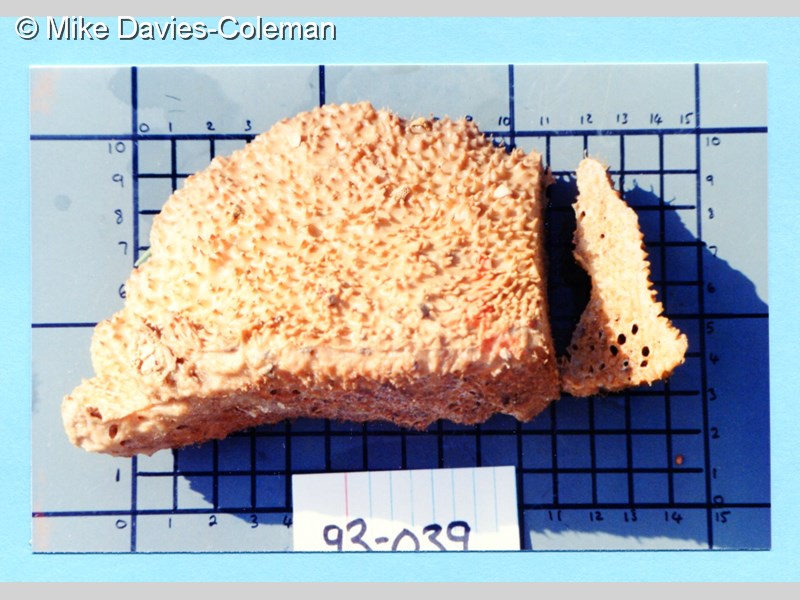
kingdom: Animalia
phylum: Porifera
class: Demospongiae
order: Axinellida
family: Axinellidae
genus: Axinella
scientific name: Axinella
